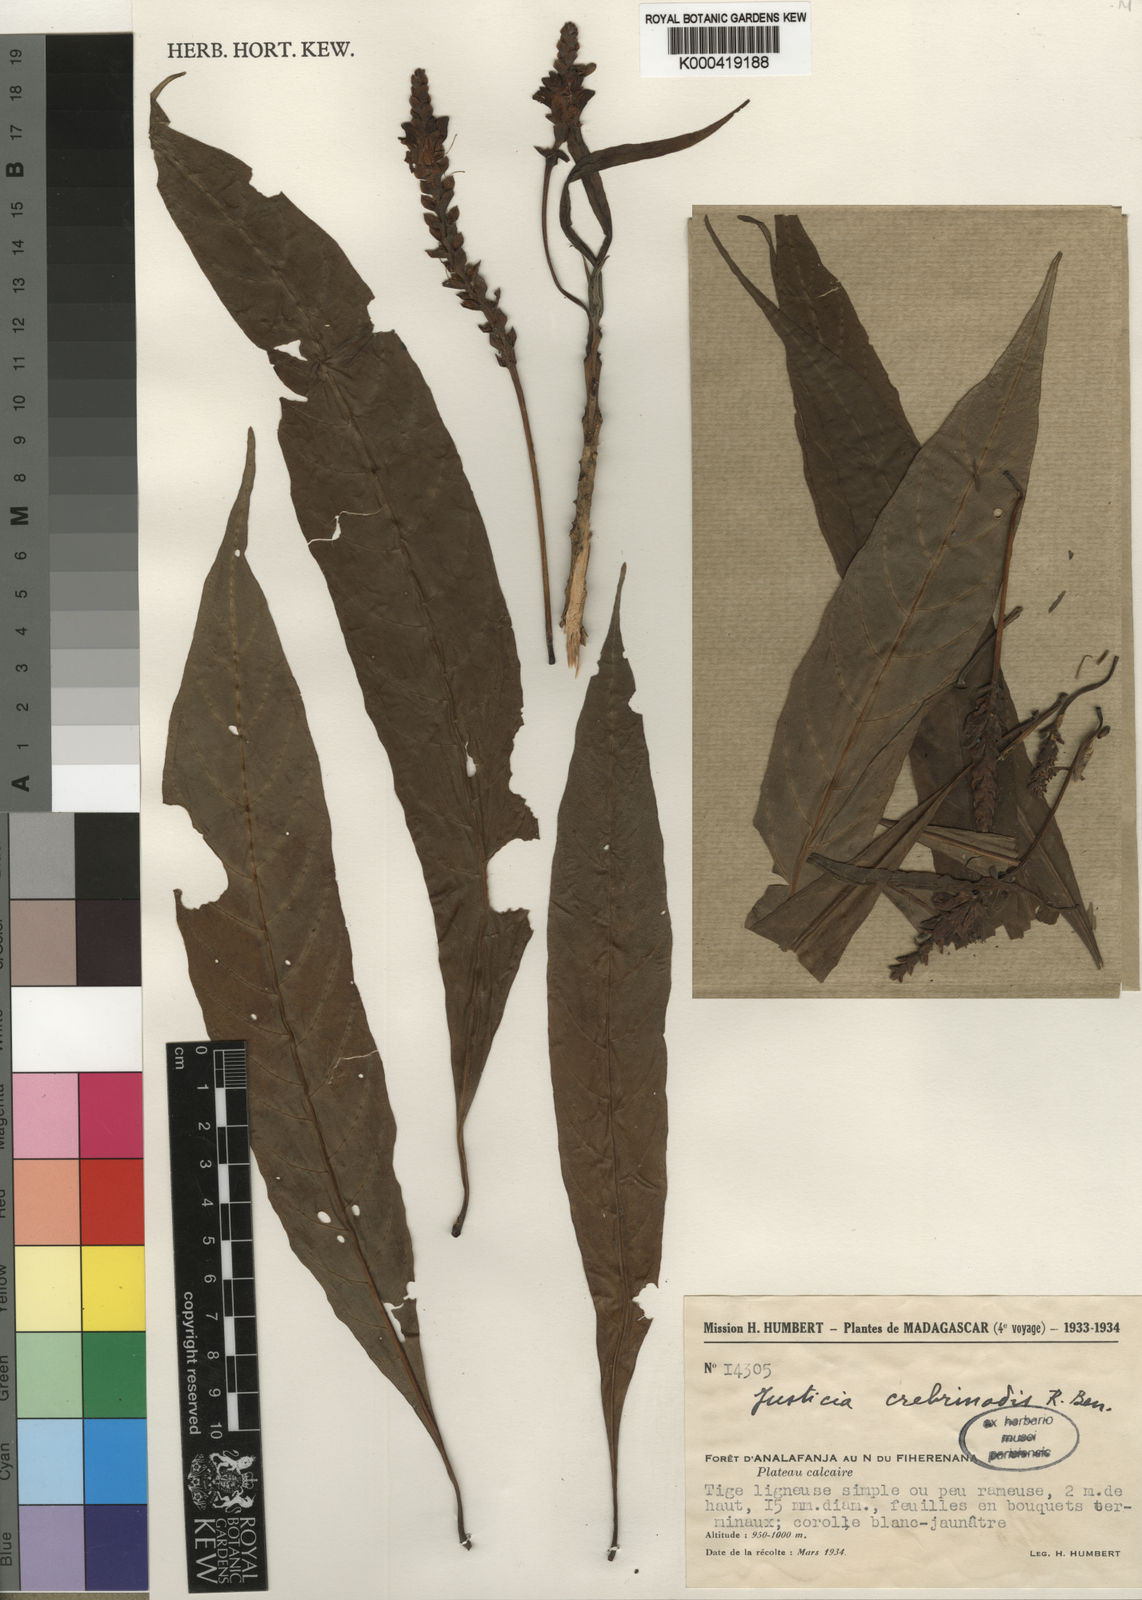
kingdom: Plantae
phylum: Tracheophyta
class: Magnoliopsida
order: Lamiales
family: Acanthaceae
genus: Justicia
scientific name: Justicia crebrinodis
